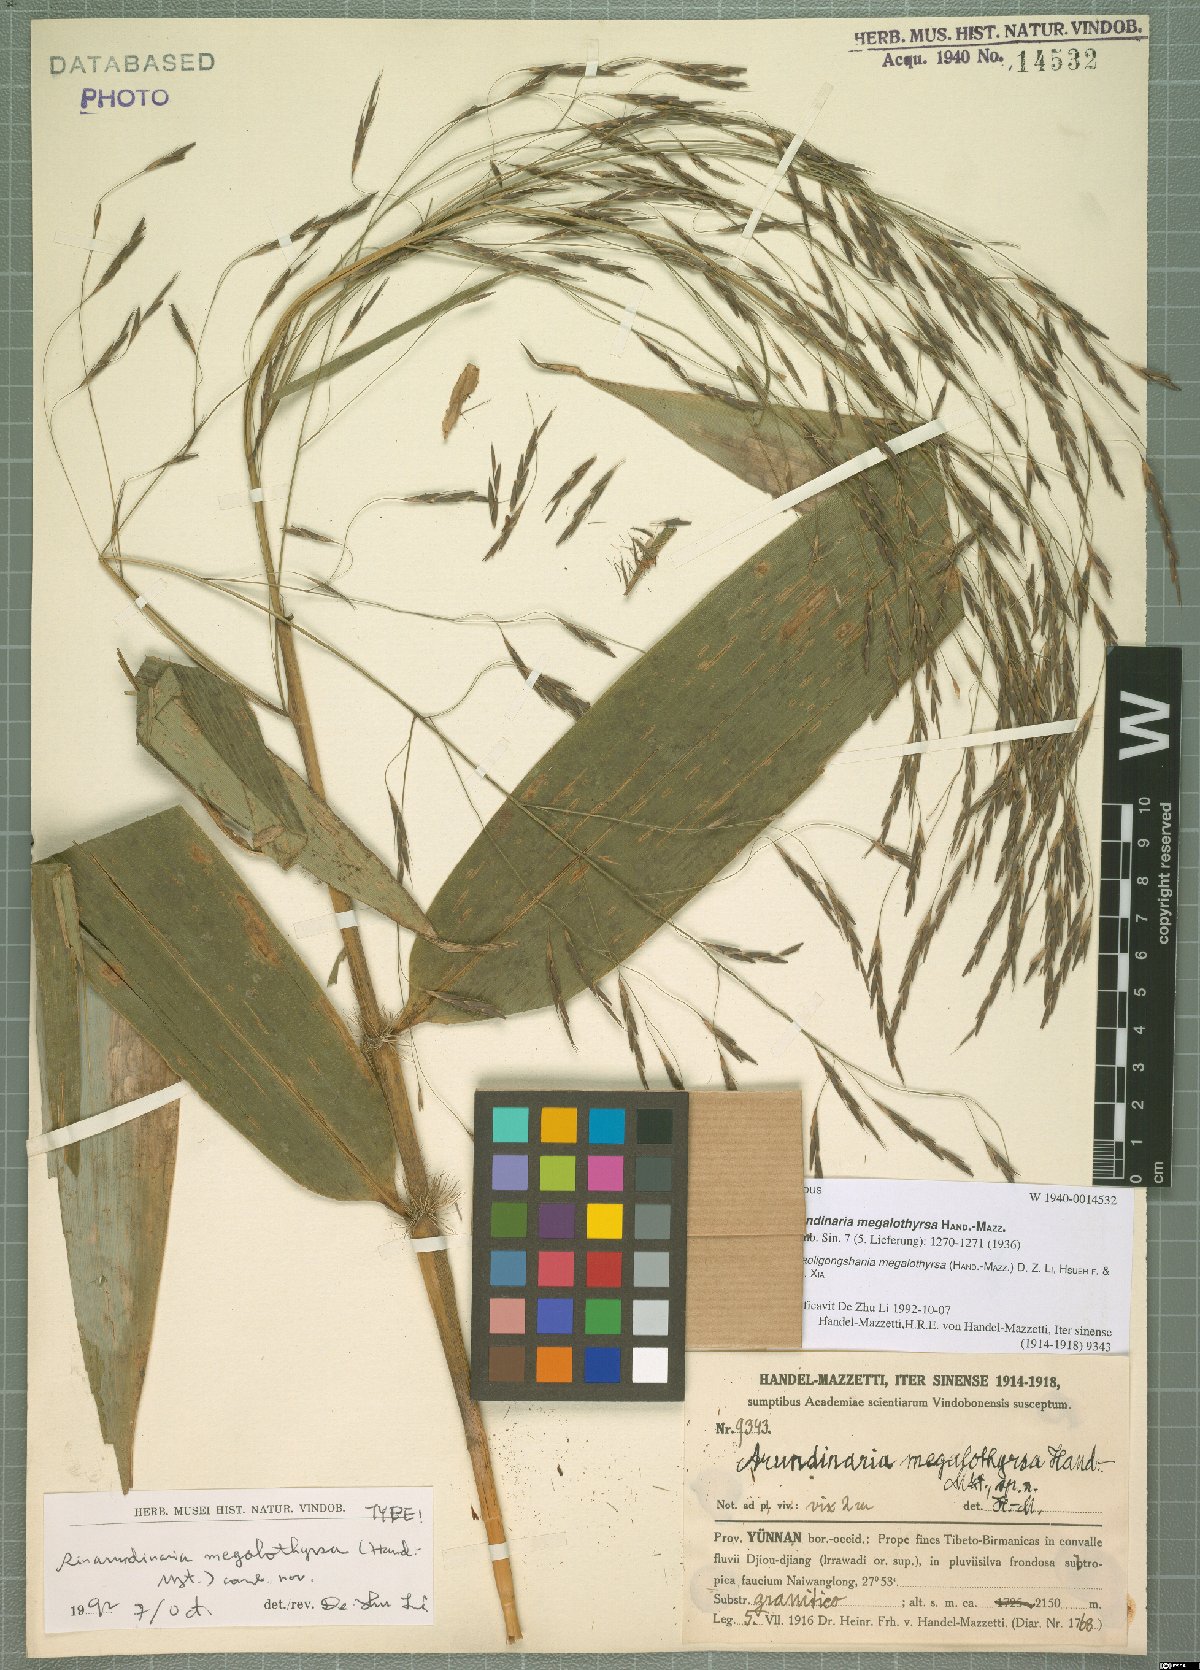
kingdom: Plantae
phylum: Tracheophyta
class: Liliopsida
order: Poales
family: Poaceae
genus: Gaoligongshania
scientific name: Gaoligongshania megalothyrsa
